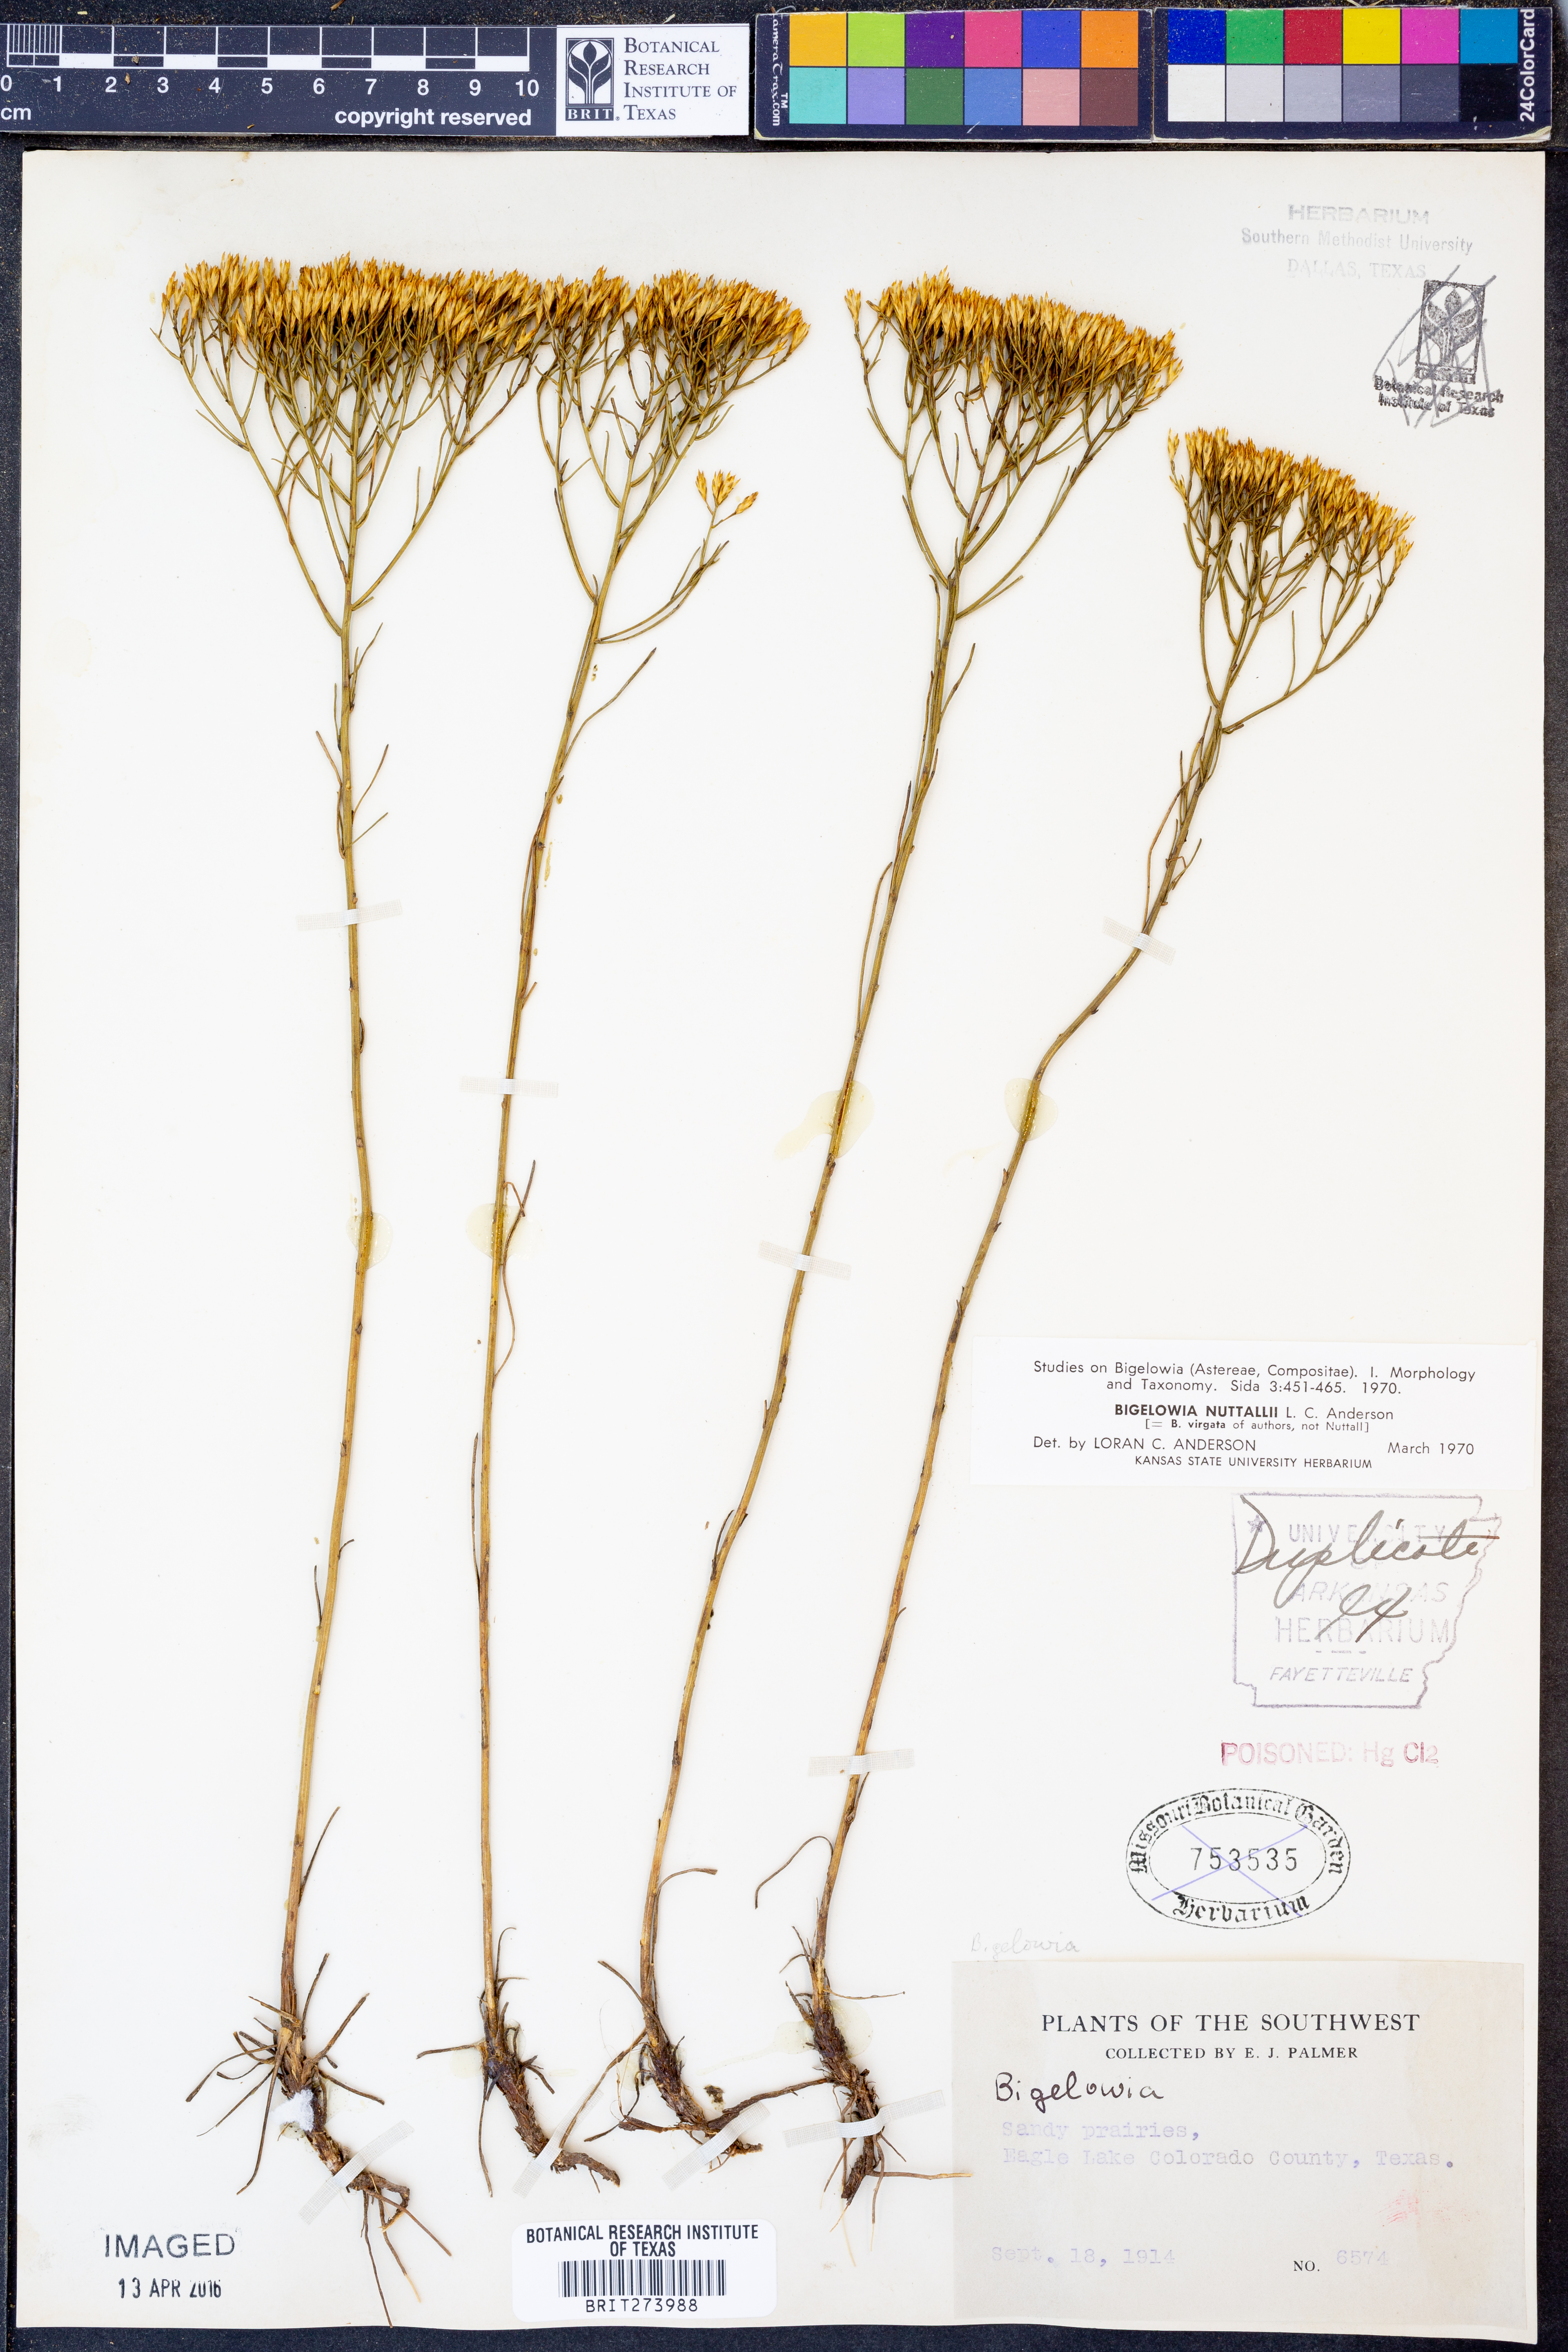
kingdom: Plantae
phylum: Tracheophyta
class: Magnoliopsida
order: Asterales
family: Asteraceae
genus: Bigelowia
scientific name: Bigelowia nuttallii
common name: Nuttall's rayless-goldenrod
